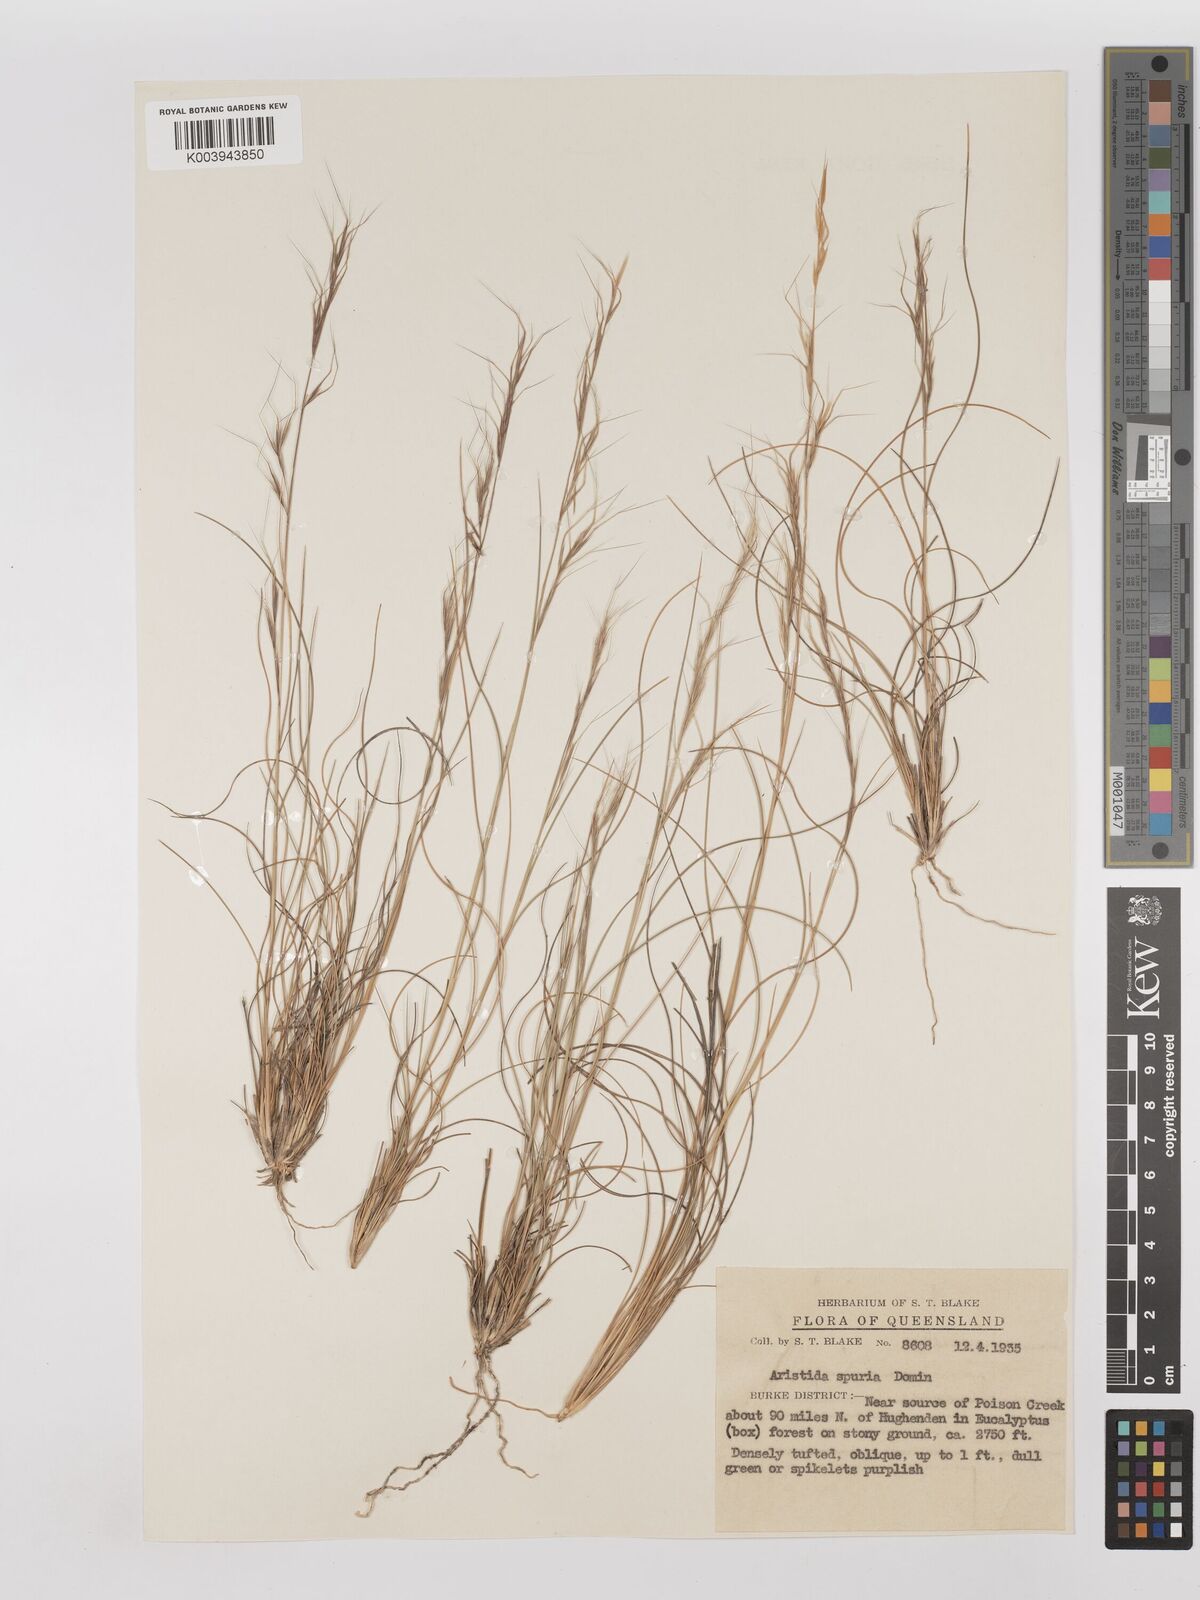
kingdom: Plantae
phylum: Tracheophyta
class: Liliopsida
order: Poales
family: Poaceae
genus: Aristida
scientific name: Aristida spuria
